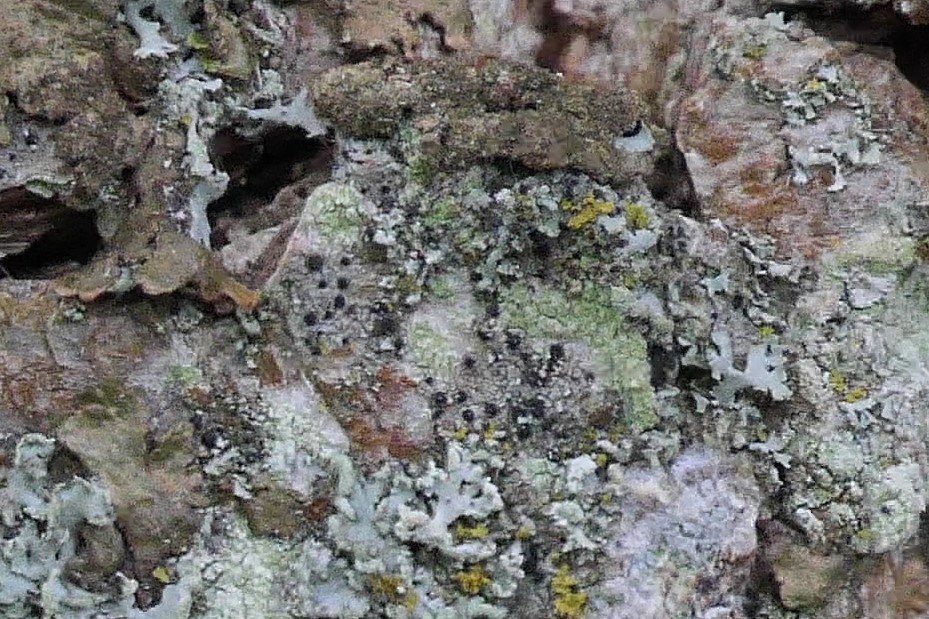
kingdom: Fungi
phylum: Ascomycota
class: Lecanoromycetes
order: Caliciales
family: Caliciaceae
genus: Amandinea
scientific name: Amandinea punctata
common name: liden sortskivelav
